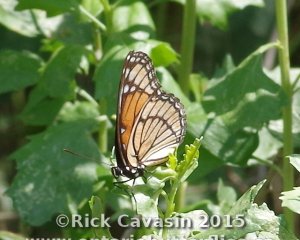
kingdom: Animalia
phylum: Arthropoda
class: Insecta
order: Lepidoptera
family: Nymphalidae
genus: Limenitis
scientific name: Limenitis archippus
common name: Viceroy
